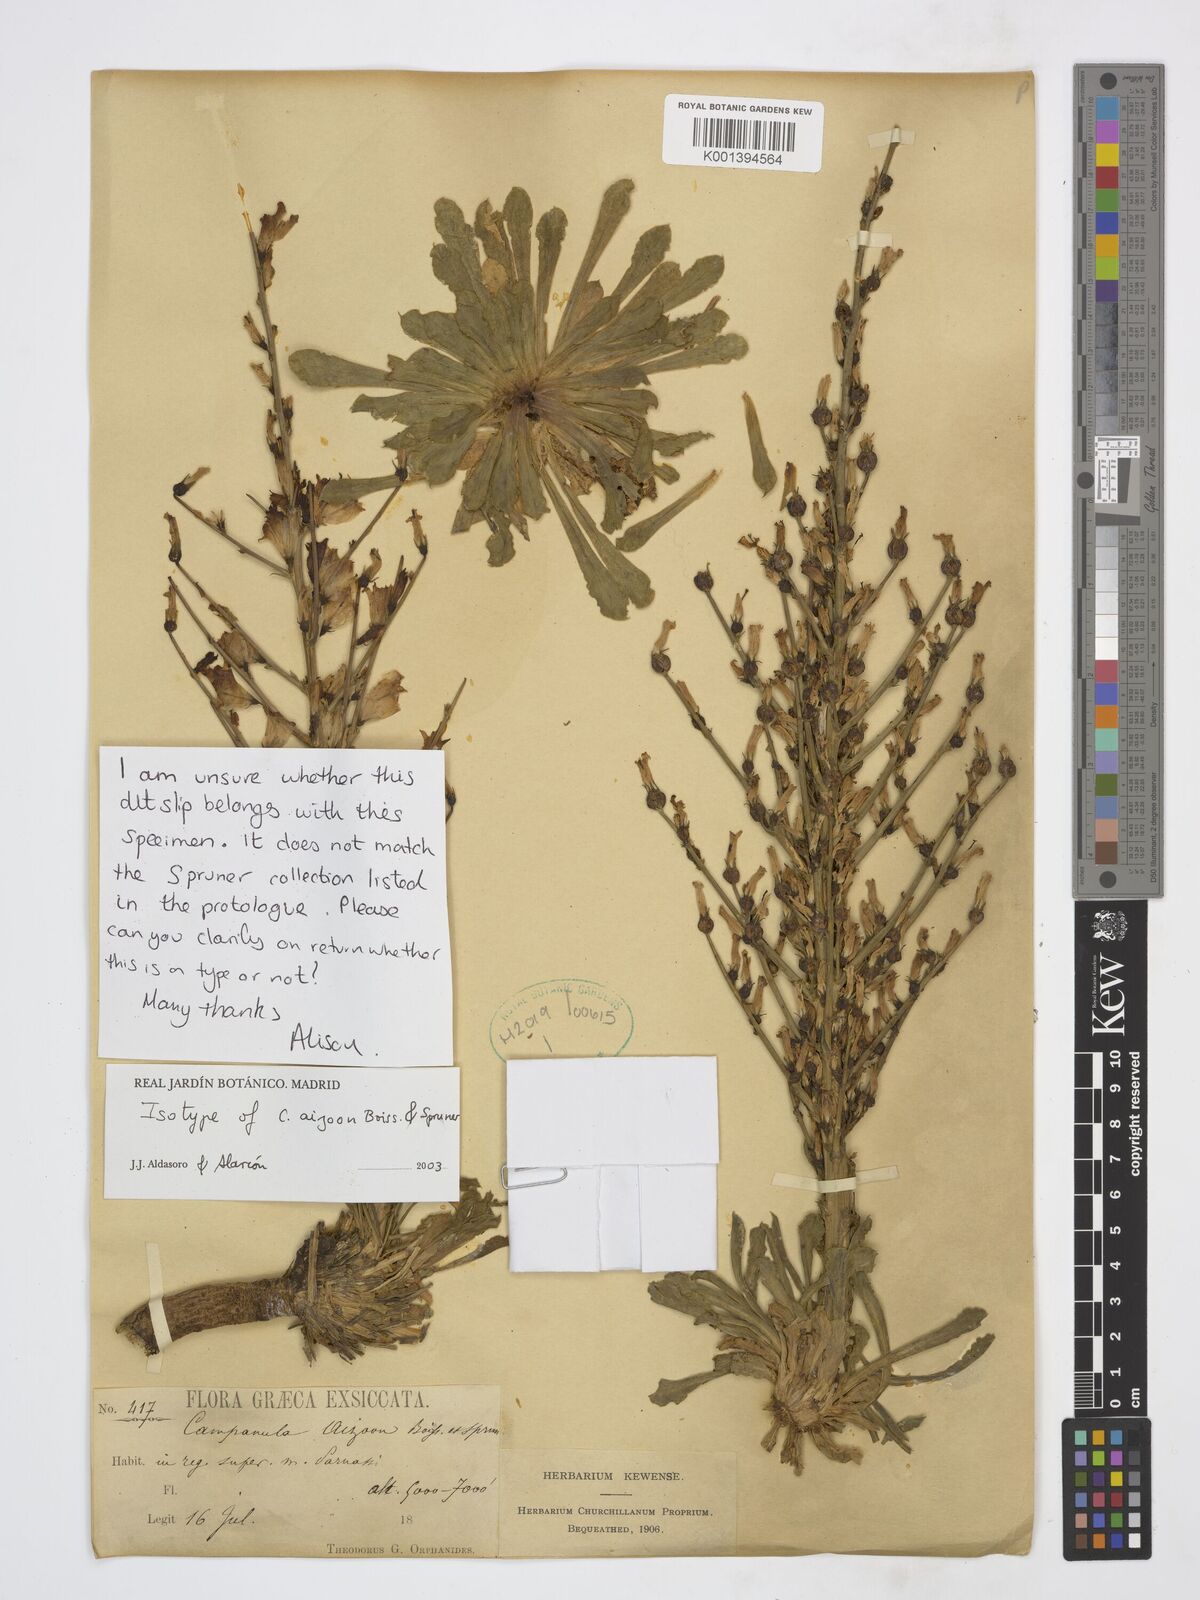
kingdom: Plantae
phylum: Tracheophyta
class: Magnoliopsida
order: Asterales
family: Campanulaceae
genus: Campanula
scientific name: Campanula aizoon
